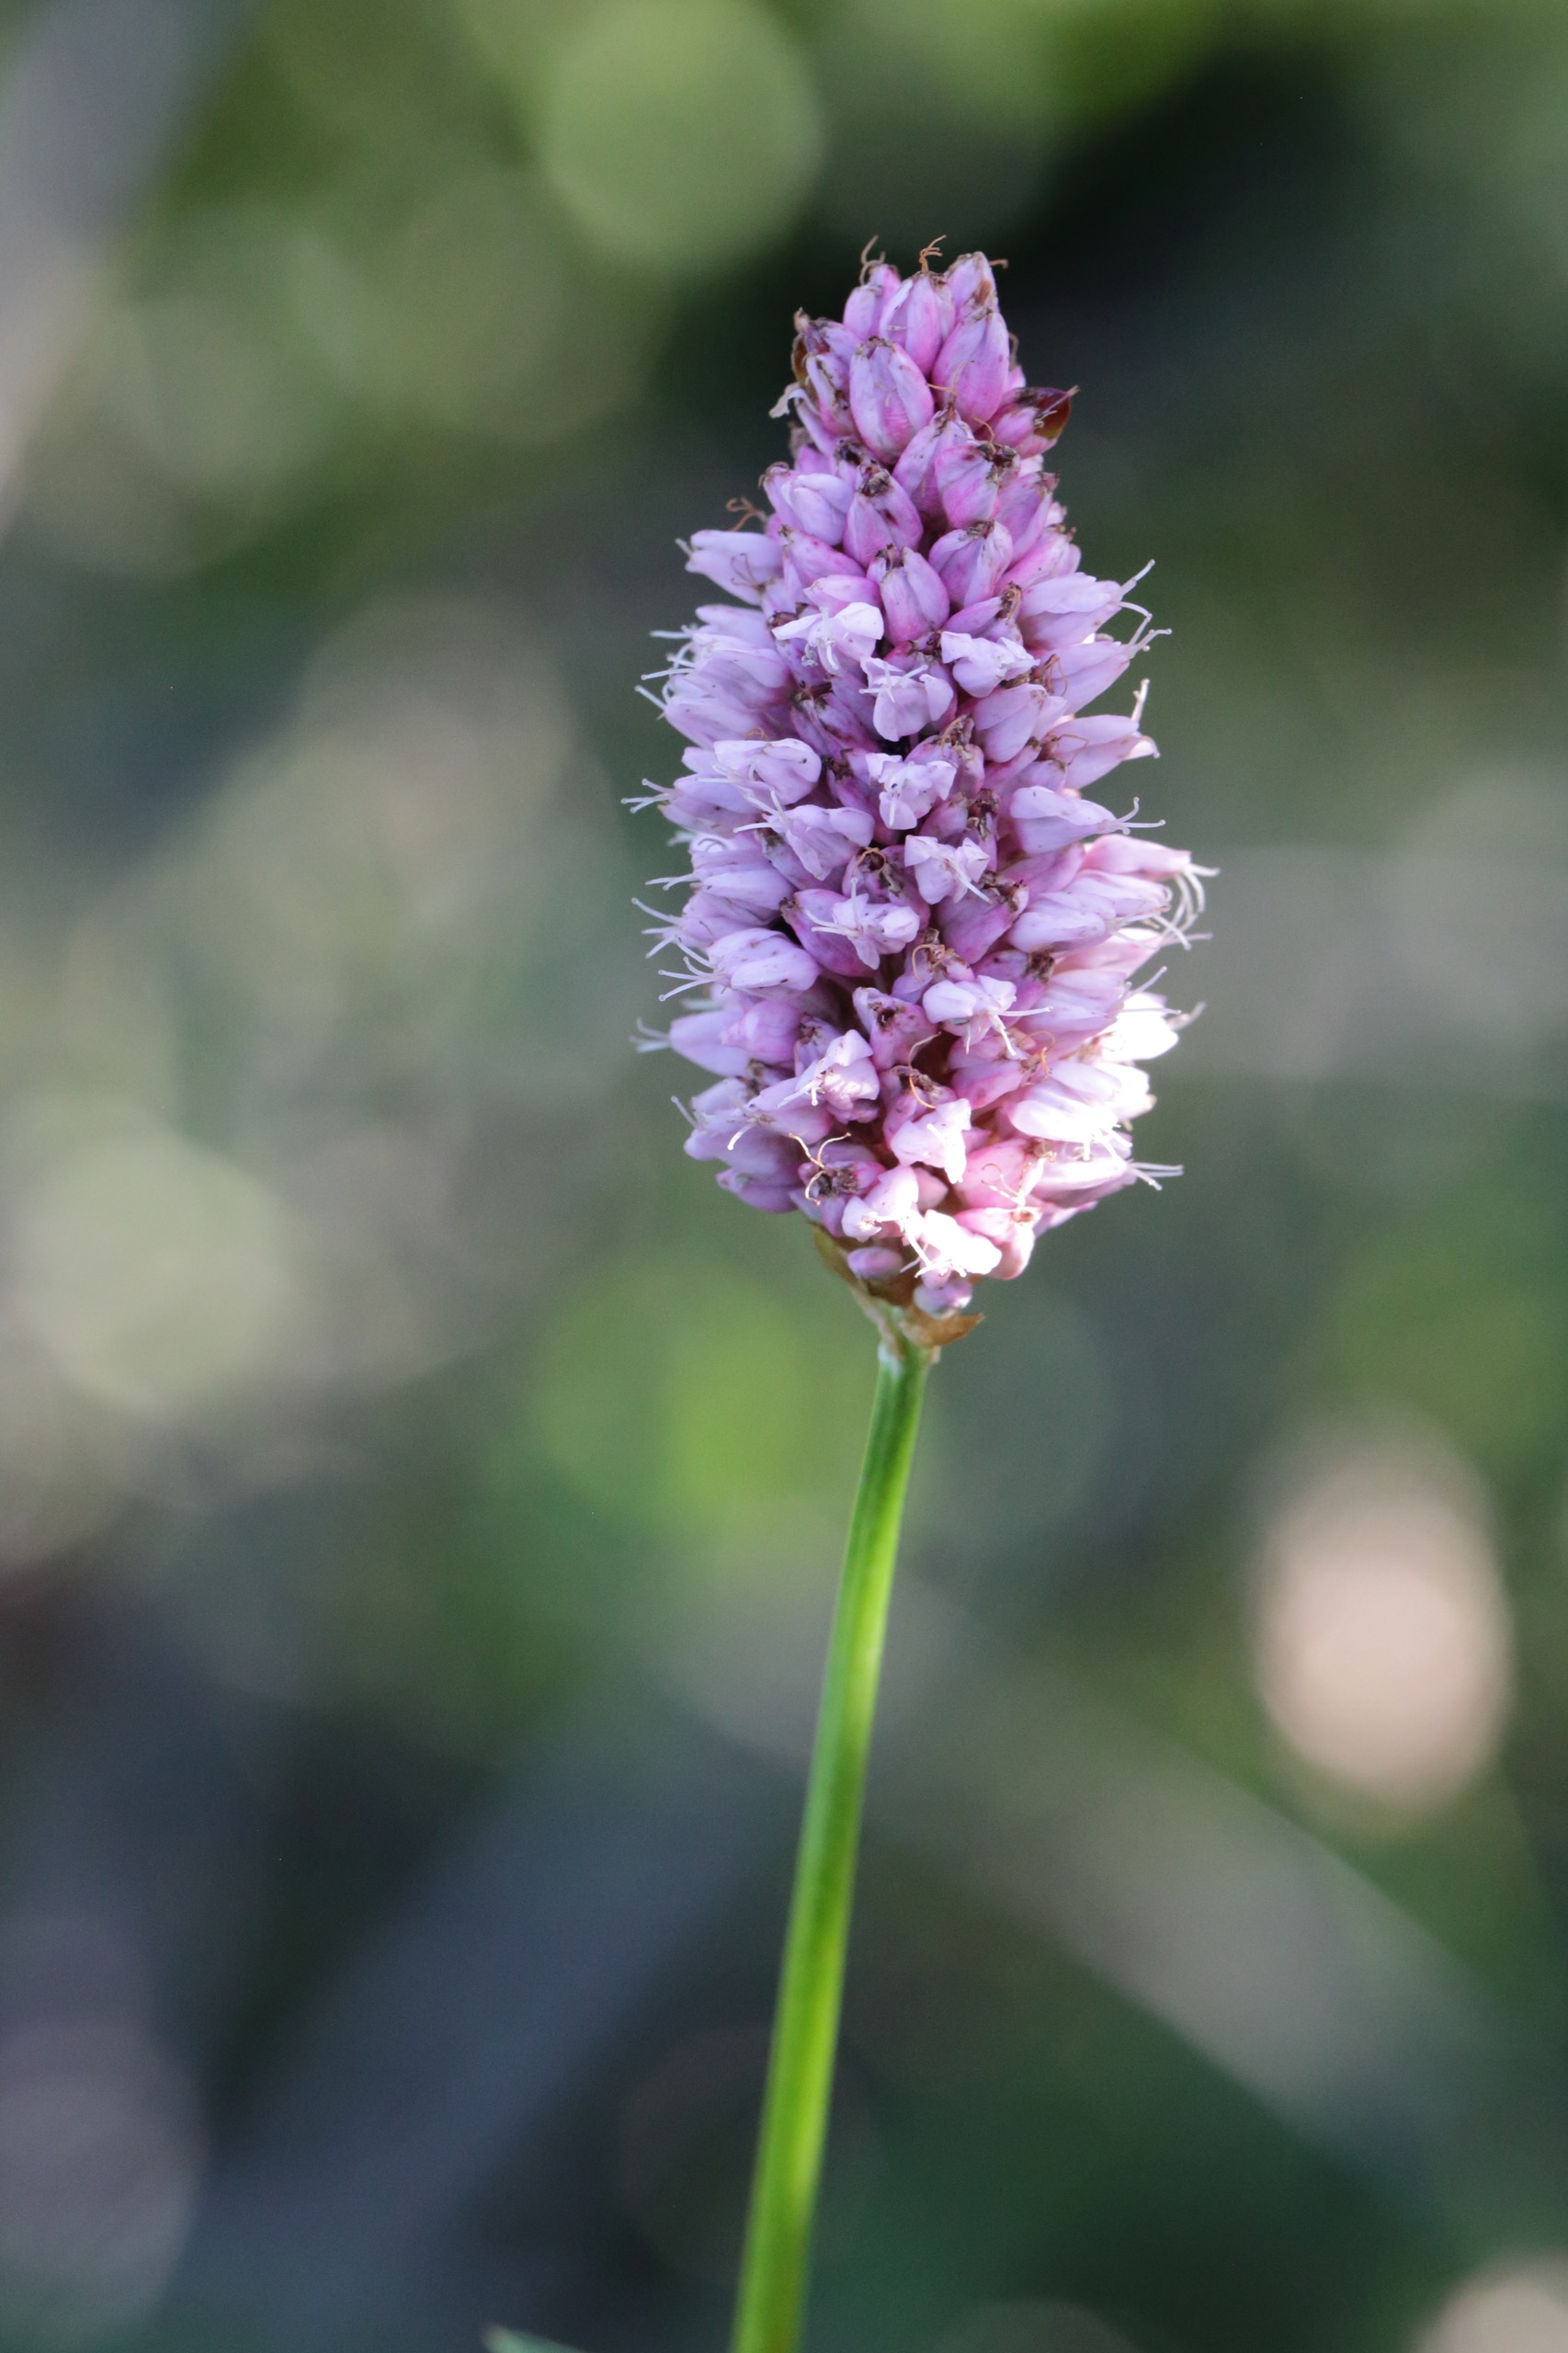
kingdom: Plantae
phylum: Tracheophyta
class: Magnoliopsida
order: Caryophyllales
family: Polygonaceae
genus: Bistorta
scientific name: Bistorta officinalis
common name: Slangeurt
